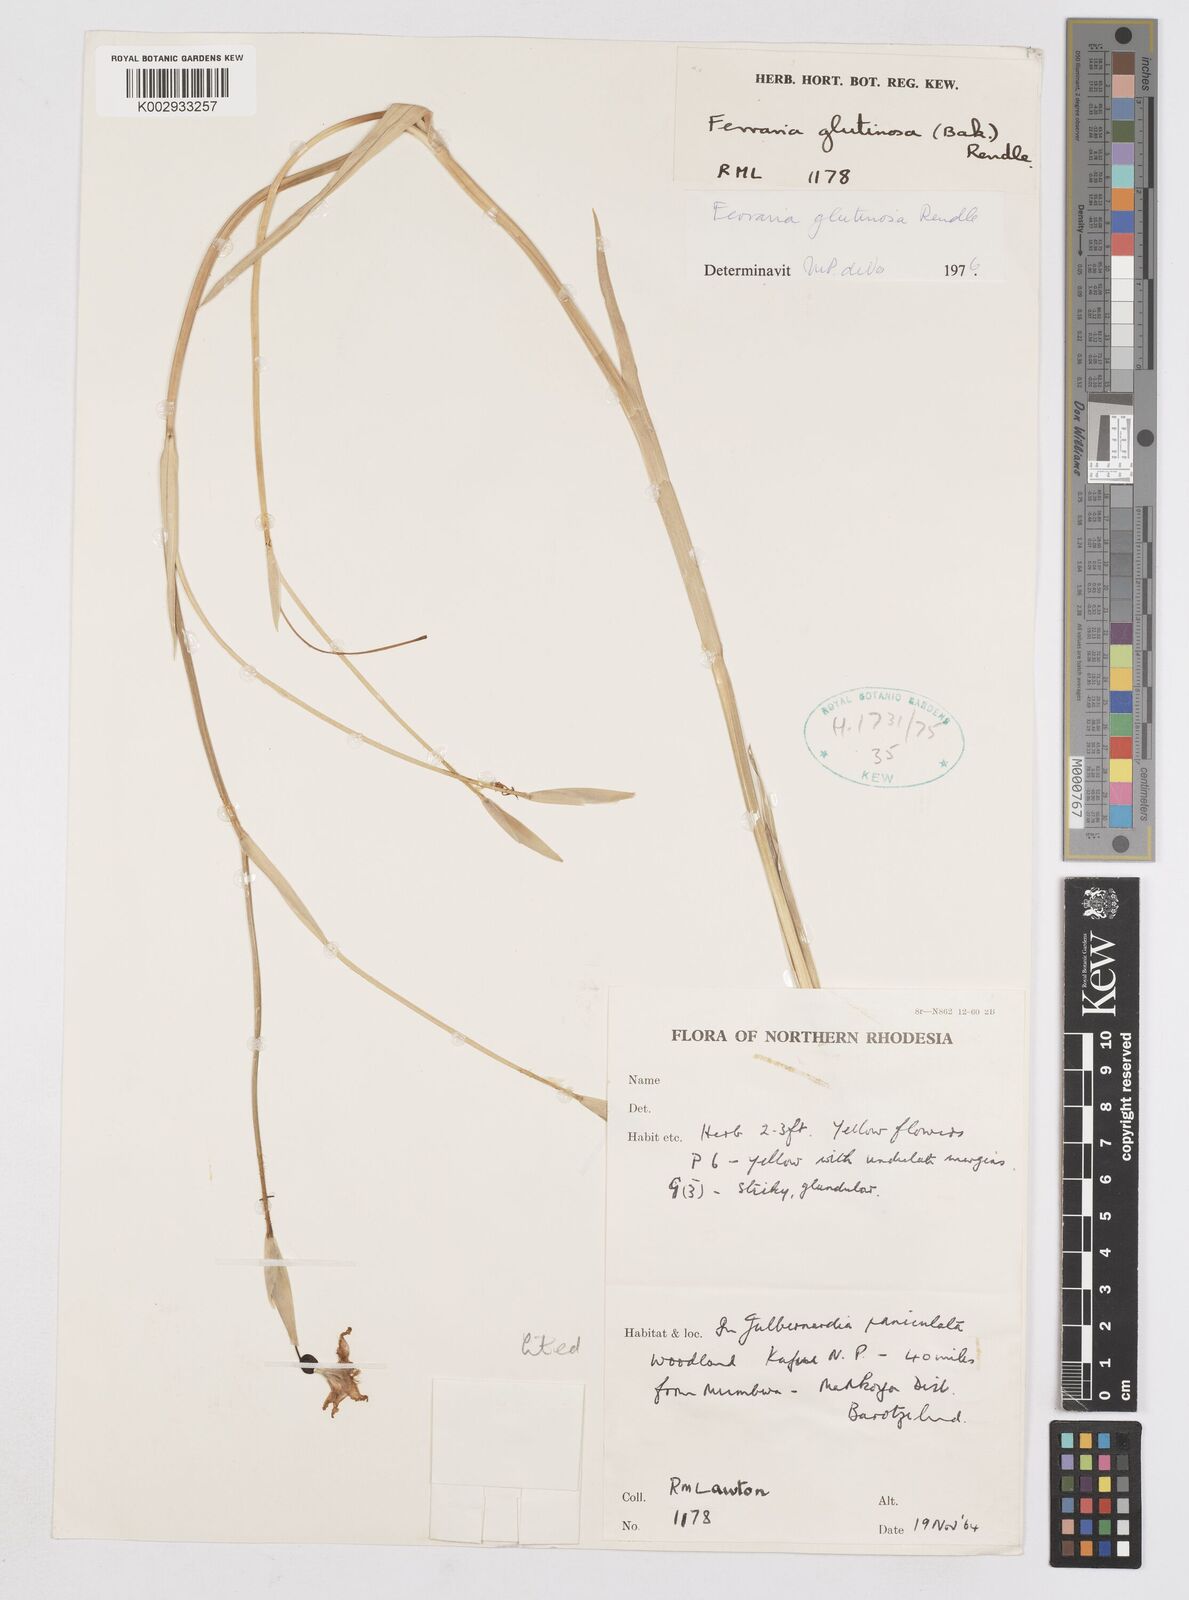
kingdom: Plantae
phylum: Tracheophyta
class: Liliopsida
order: Asparagales
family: Iridaceae
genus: Ferraria
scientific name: Ferraria
